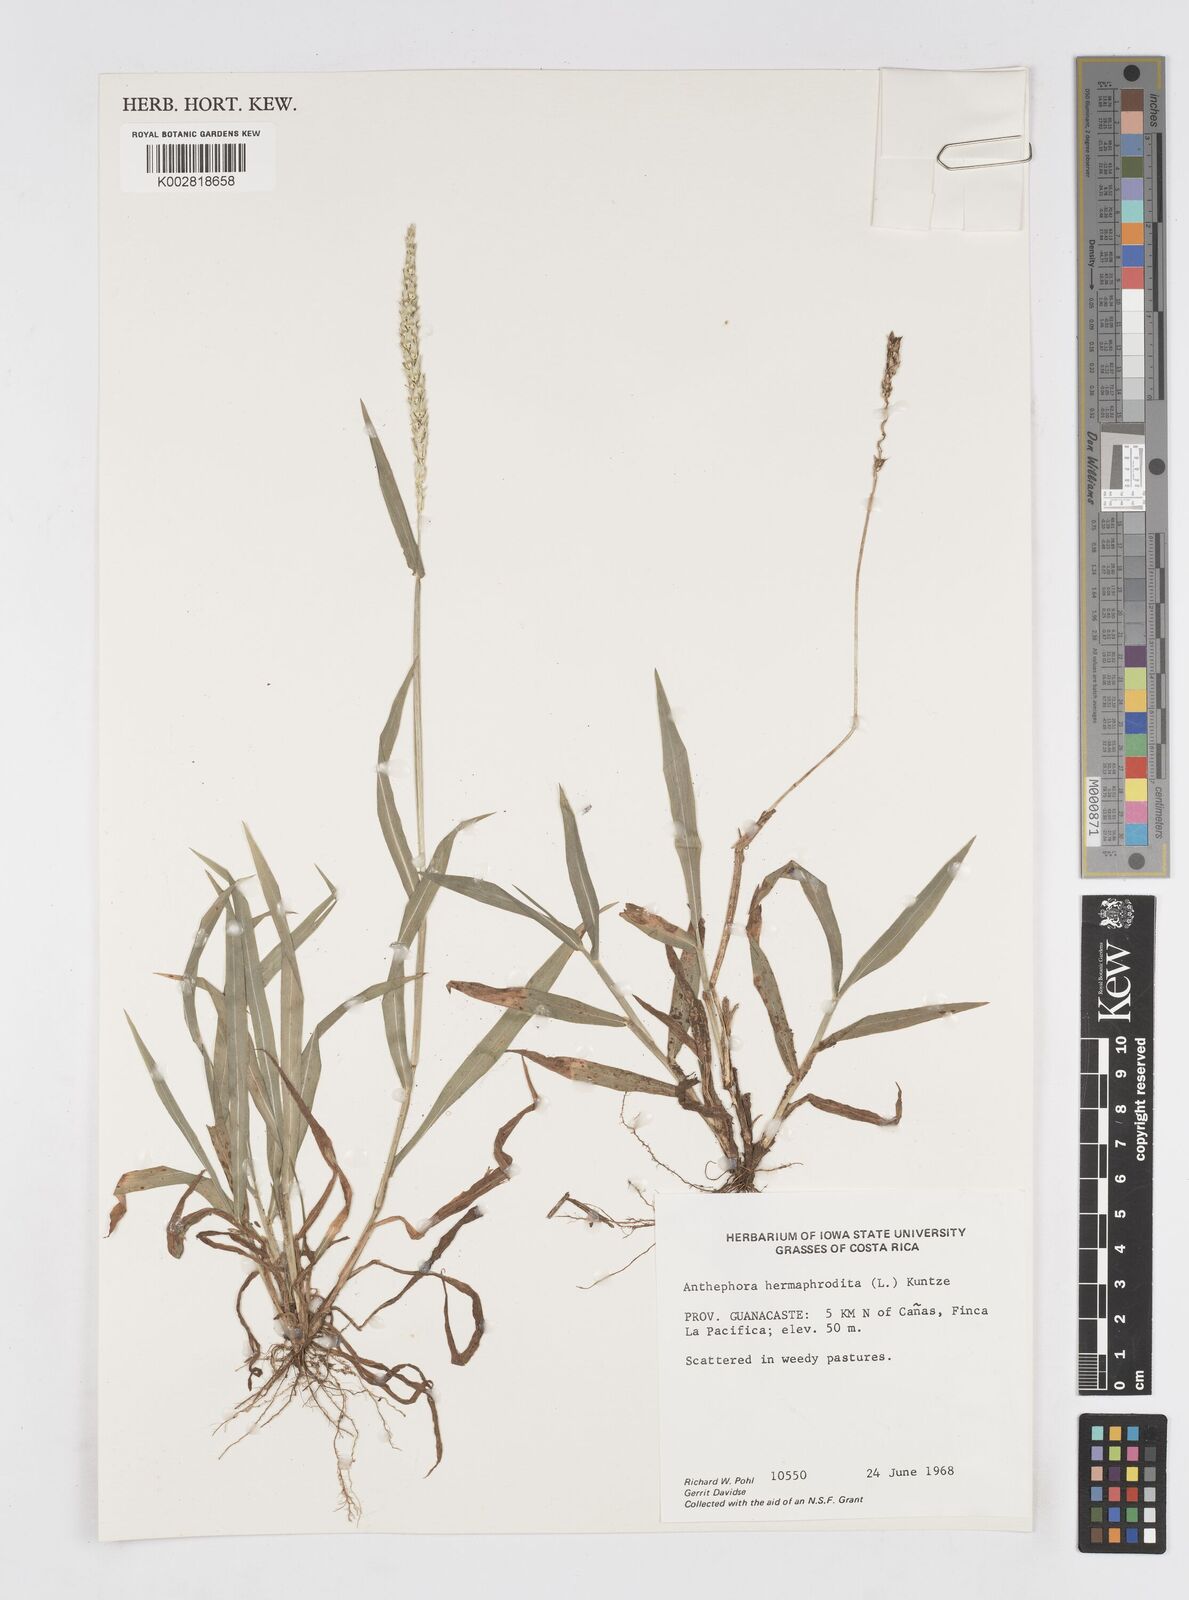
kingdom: Plantae
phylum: Tracheophyta
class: Liliopsida
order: Poales
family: Poaceae
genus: Anthephora
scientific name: Anthephora hermaphrodita
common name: Oldfield grass
